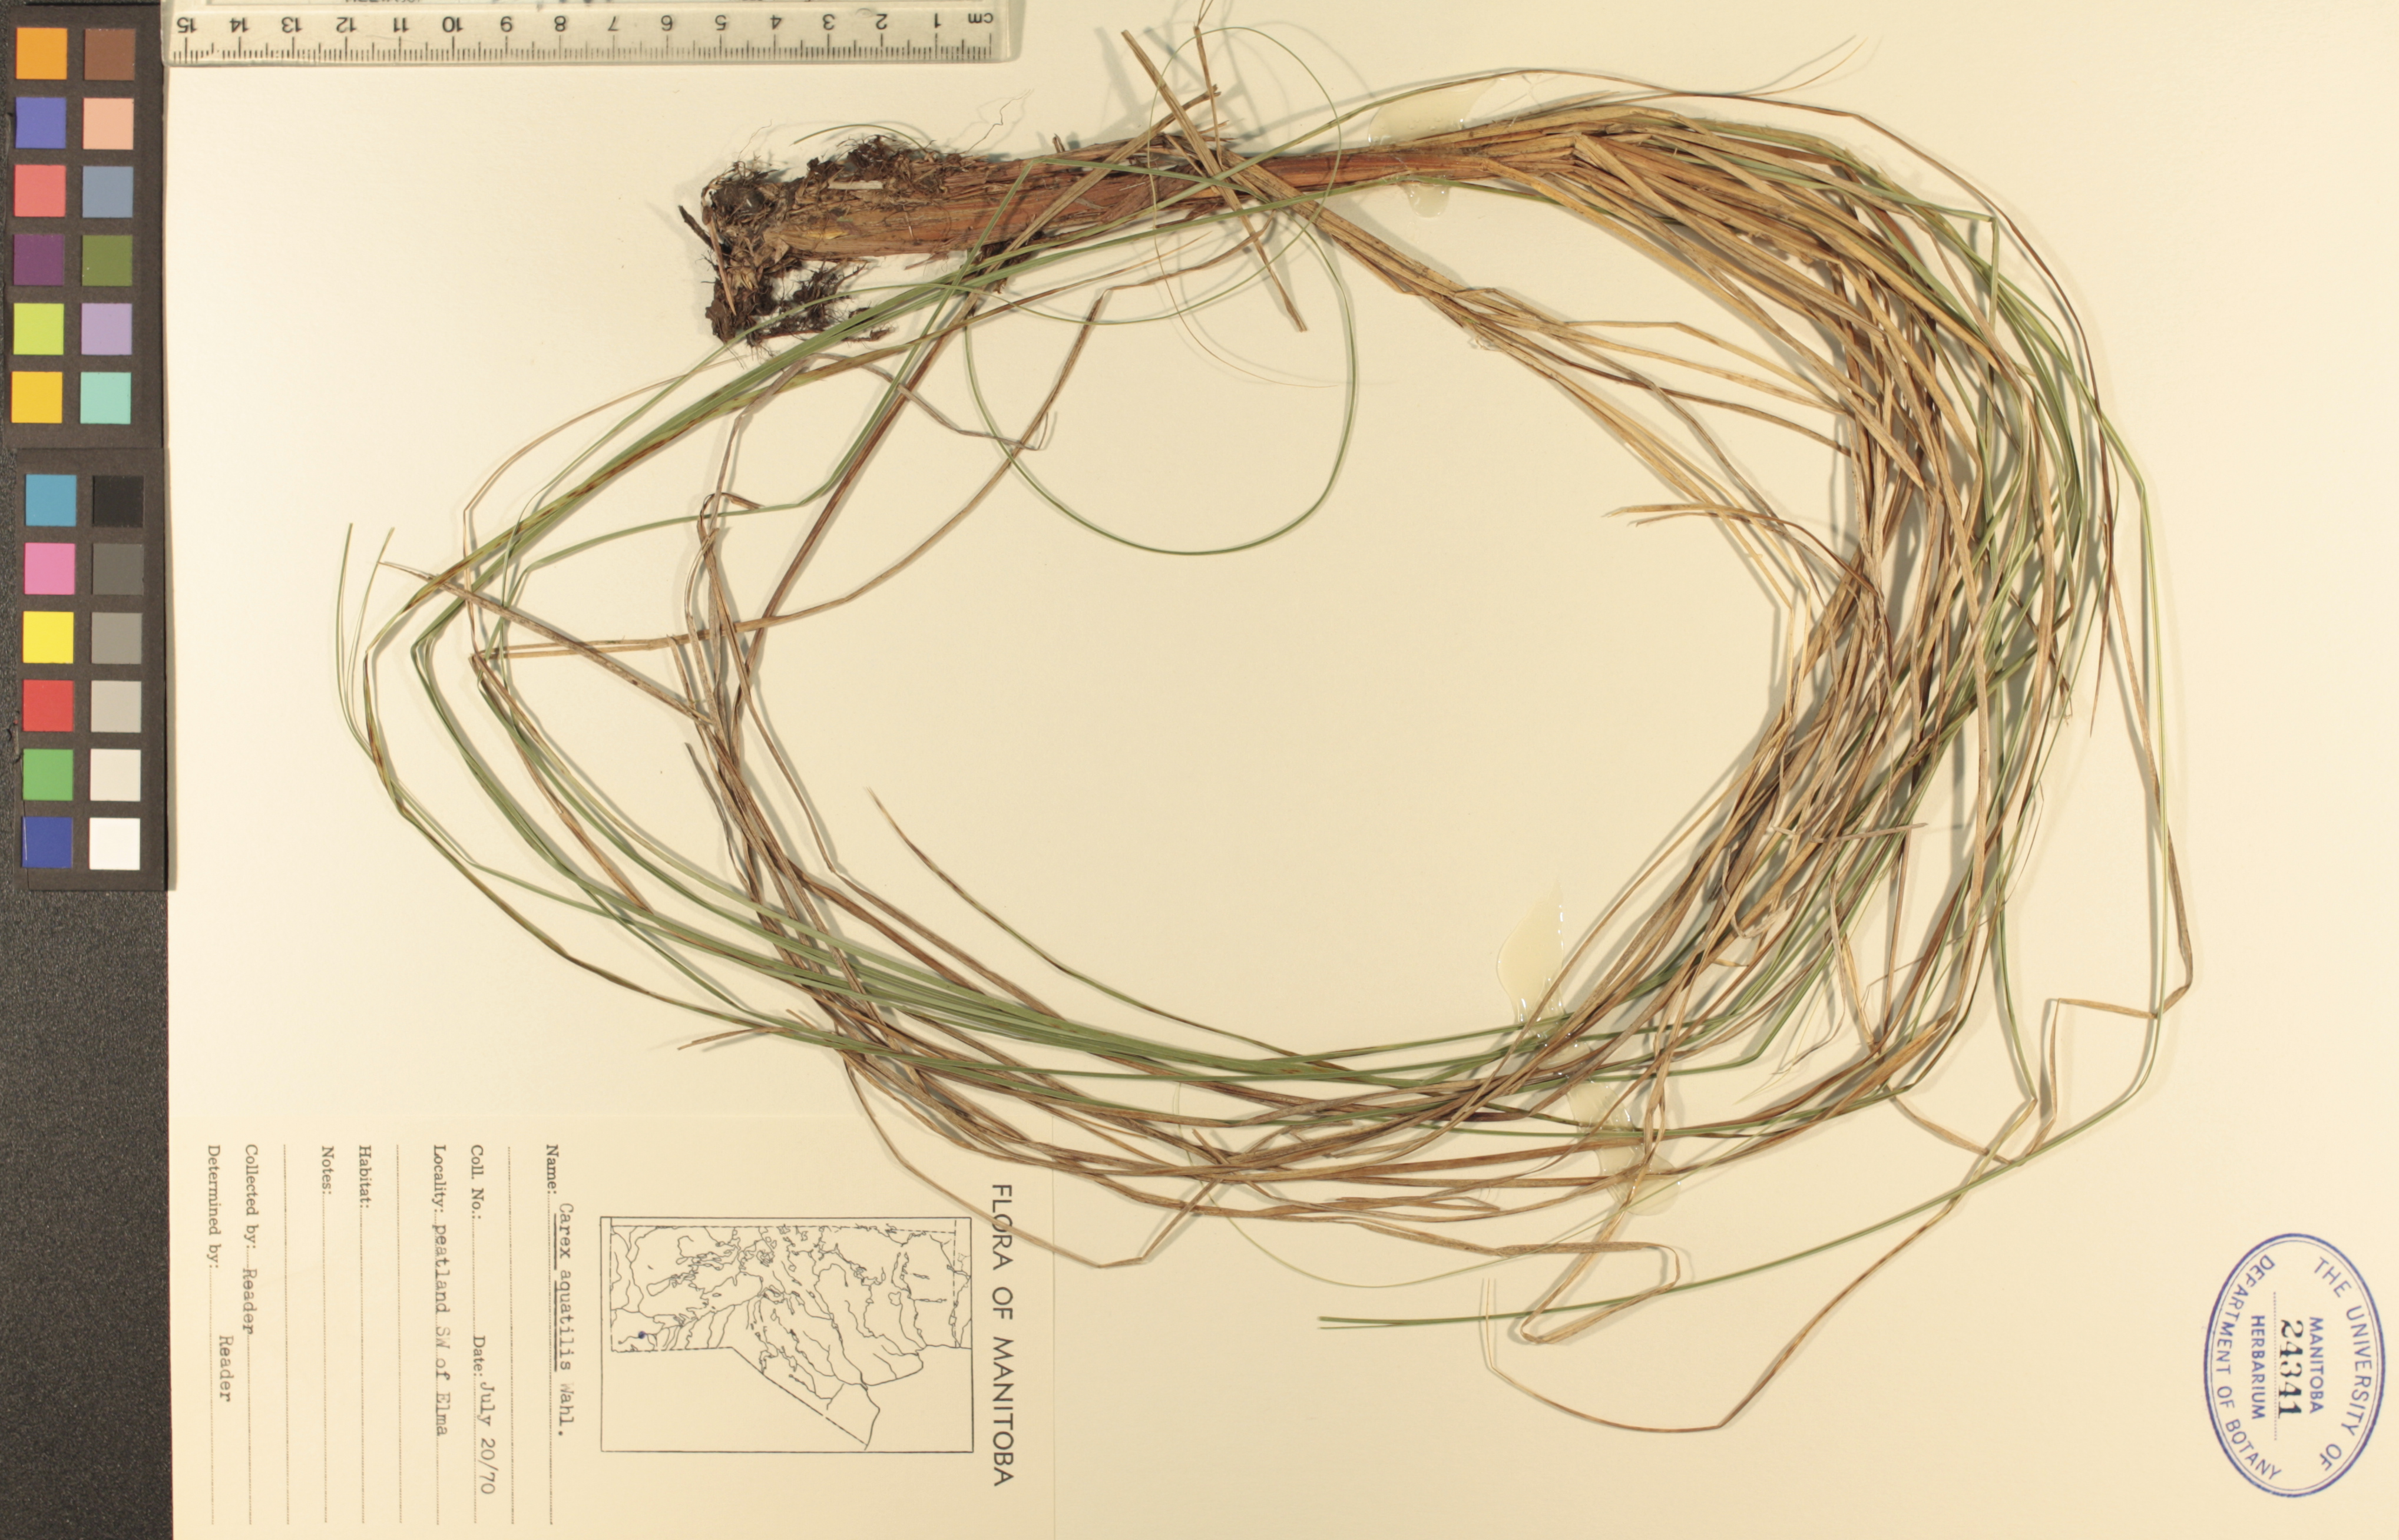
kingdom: Plantae
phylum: Tracheophyta
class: Liliopsida
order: Poales
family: Cyperaceae
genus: Carex
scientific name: Carex aquatilis
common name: Water sedge
